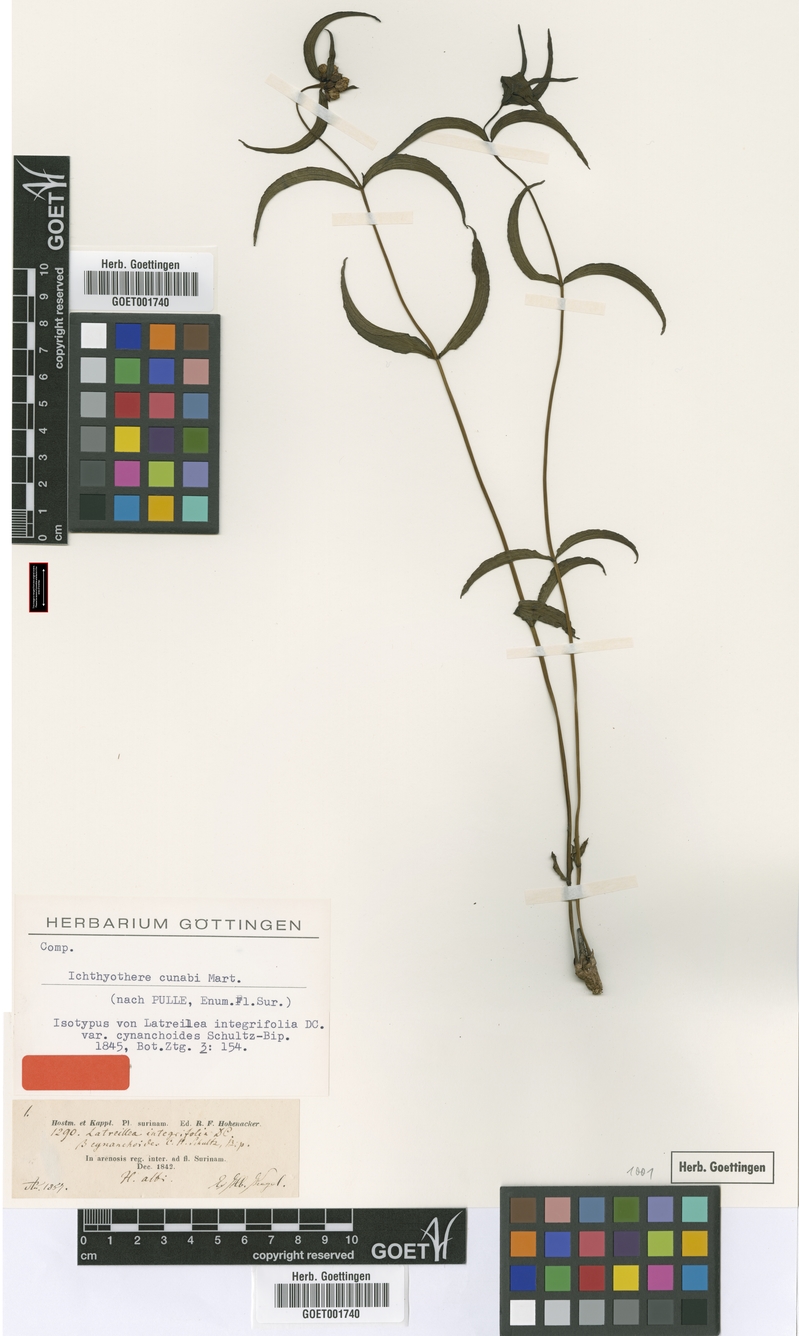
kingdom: Plantae
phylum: Tracheophyta
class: Magnoliopsida
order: Asterales
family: Asteraceae
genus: Ichthyothere
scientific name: Ichthyothere cunabi
